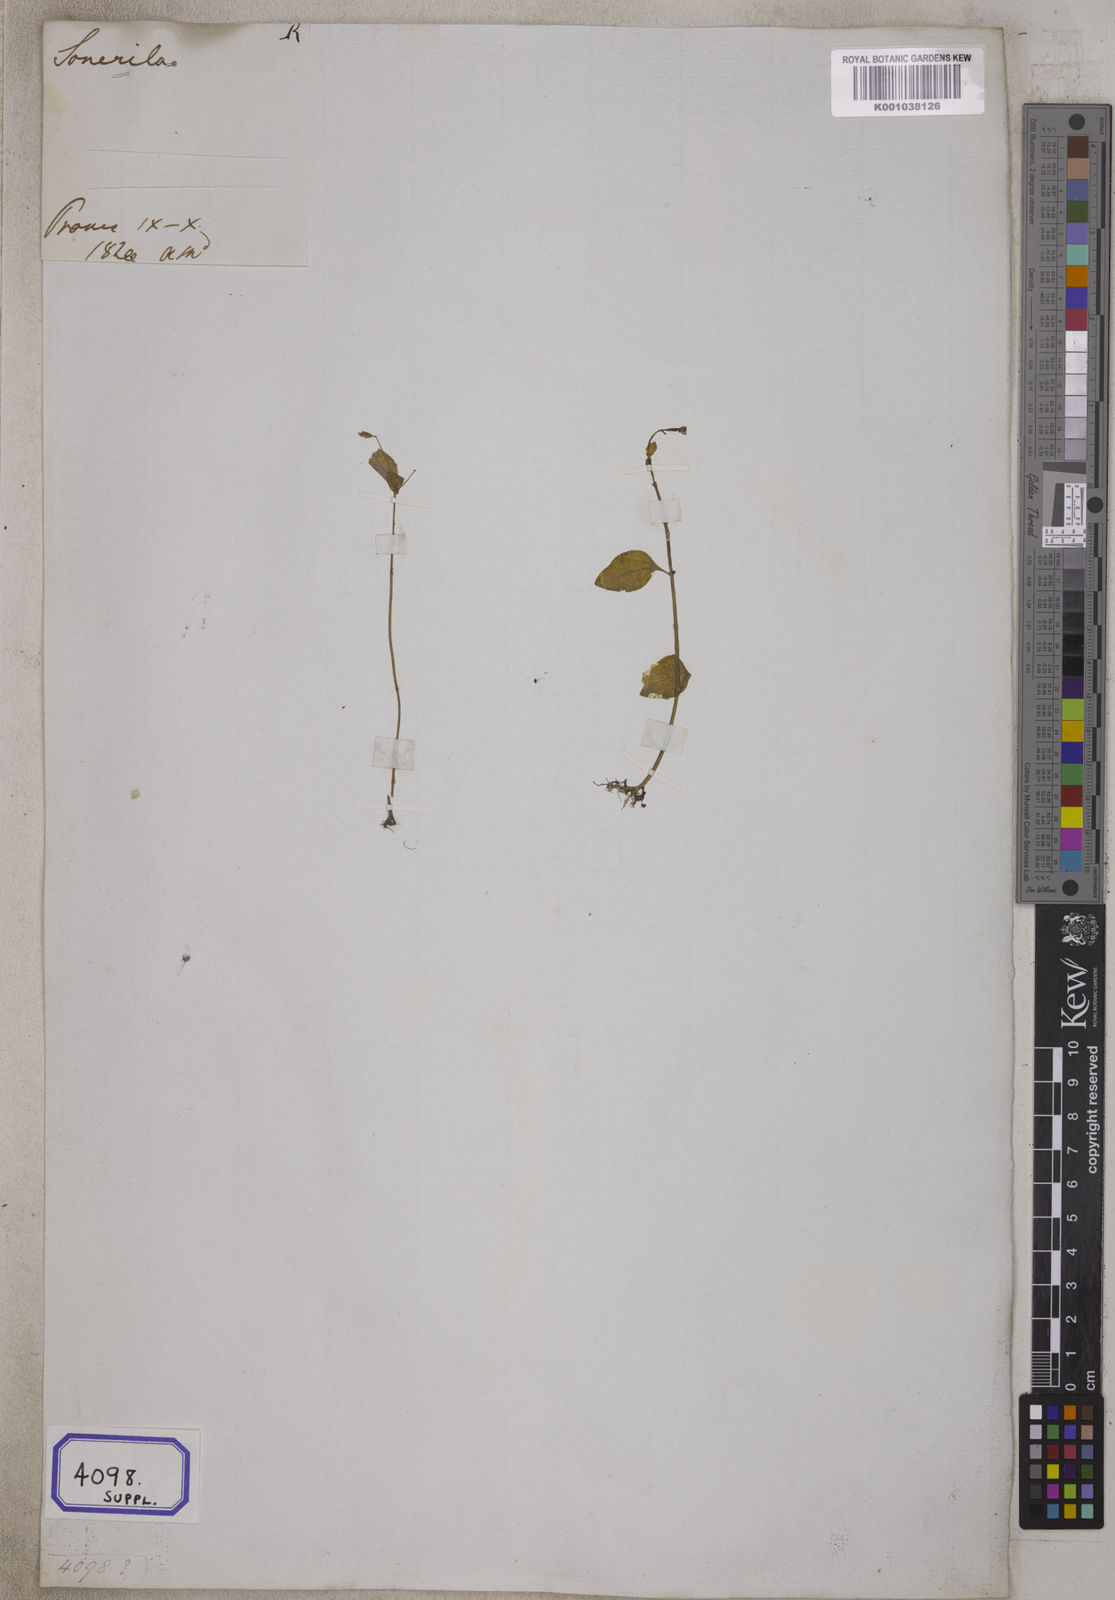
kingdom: Plantae
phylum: Tracheophyta
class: Magnoliopsida
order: Myrtales
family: Melastomataceae
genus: Sonerila
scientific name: Sonerila
